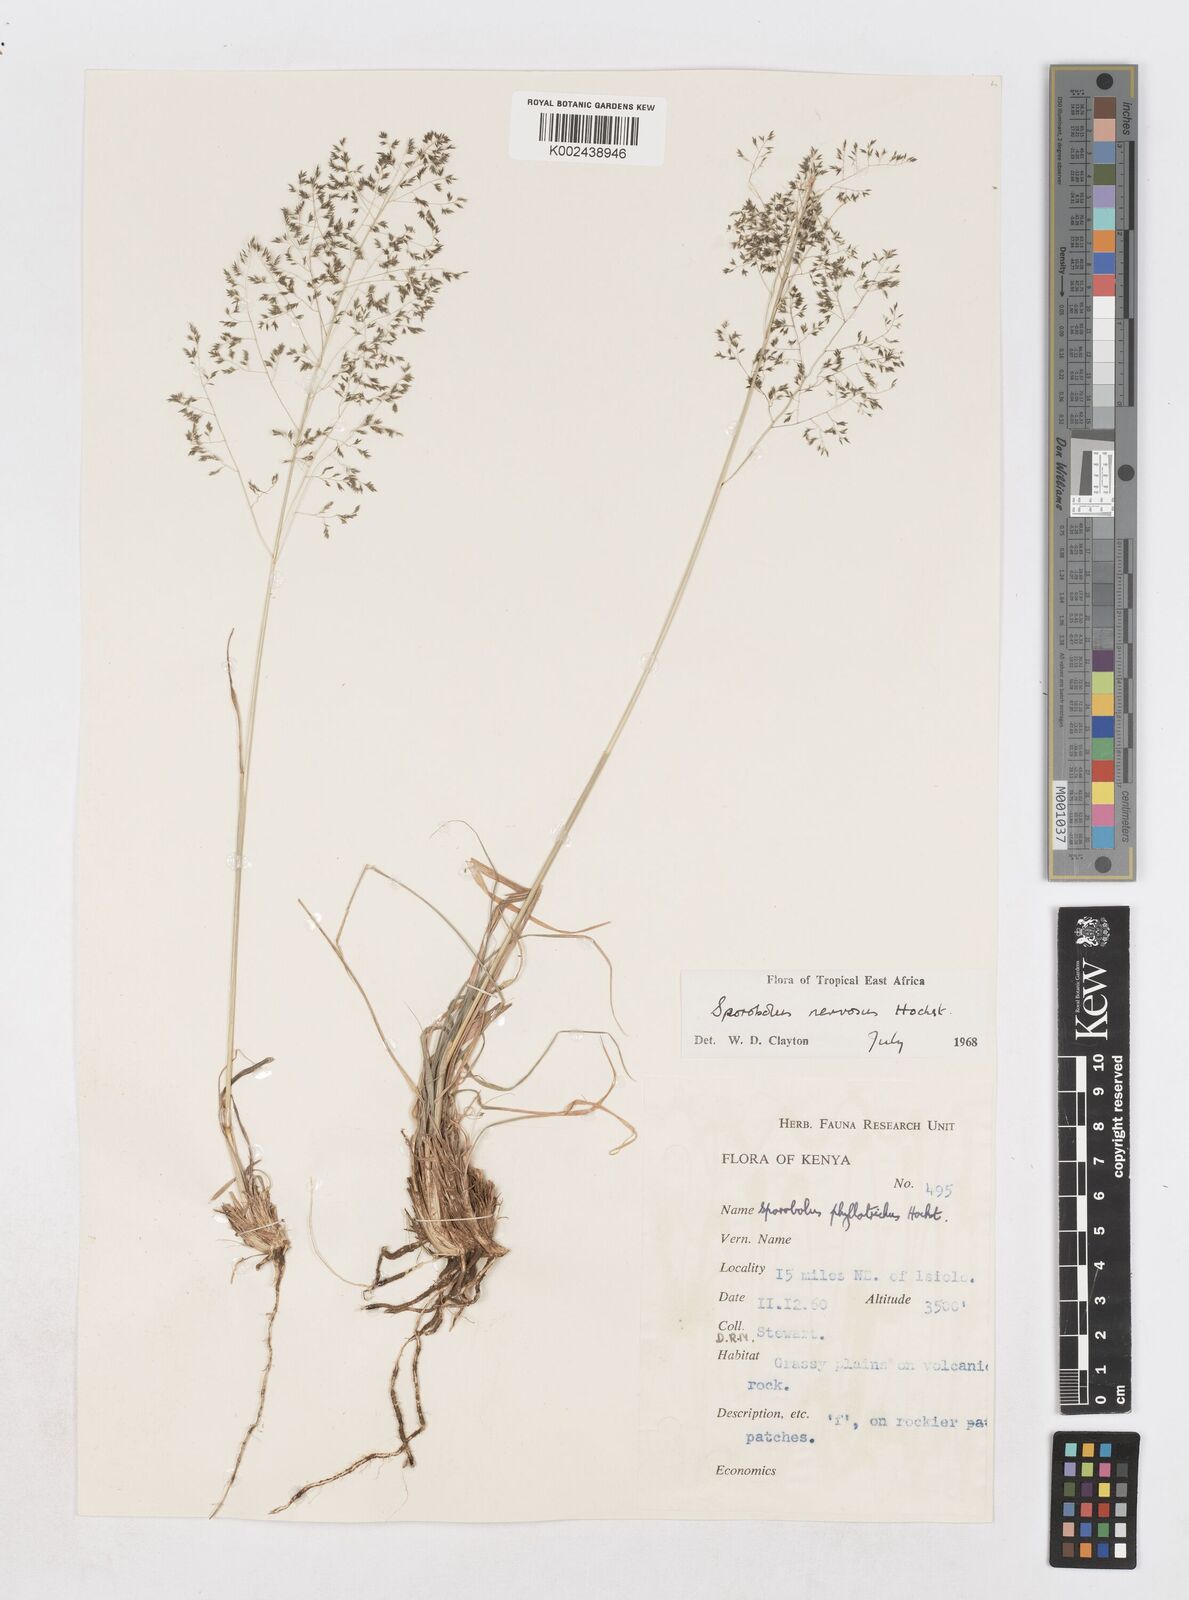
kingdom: Plantae
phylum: Tracheophyta
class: Liliopsida
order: Poales
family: Poaceae
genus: Sporobolus
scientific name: Sporobolus nervosus
